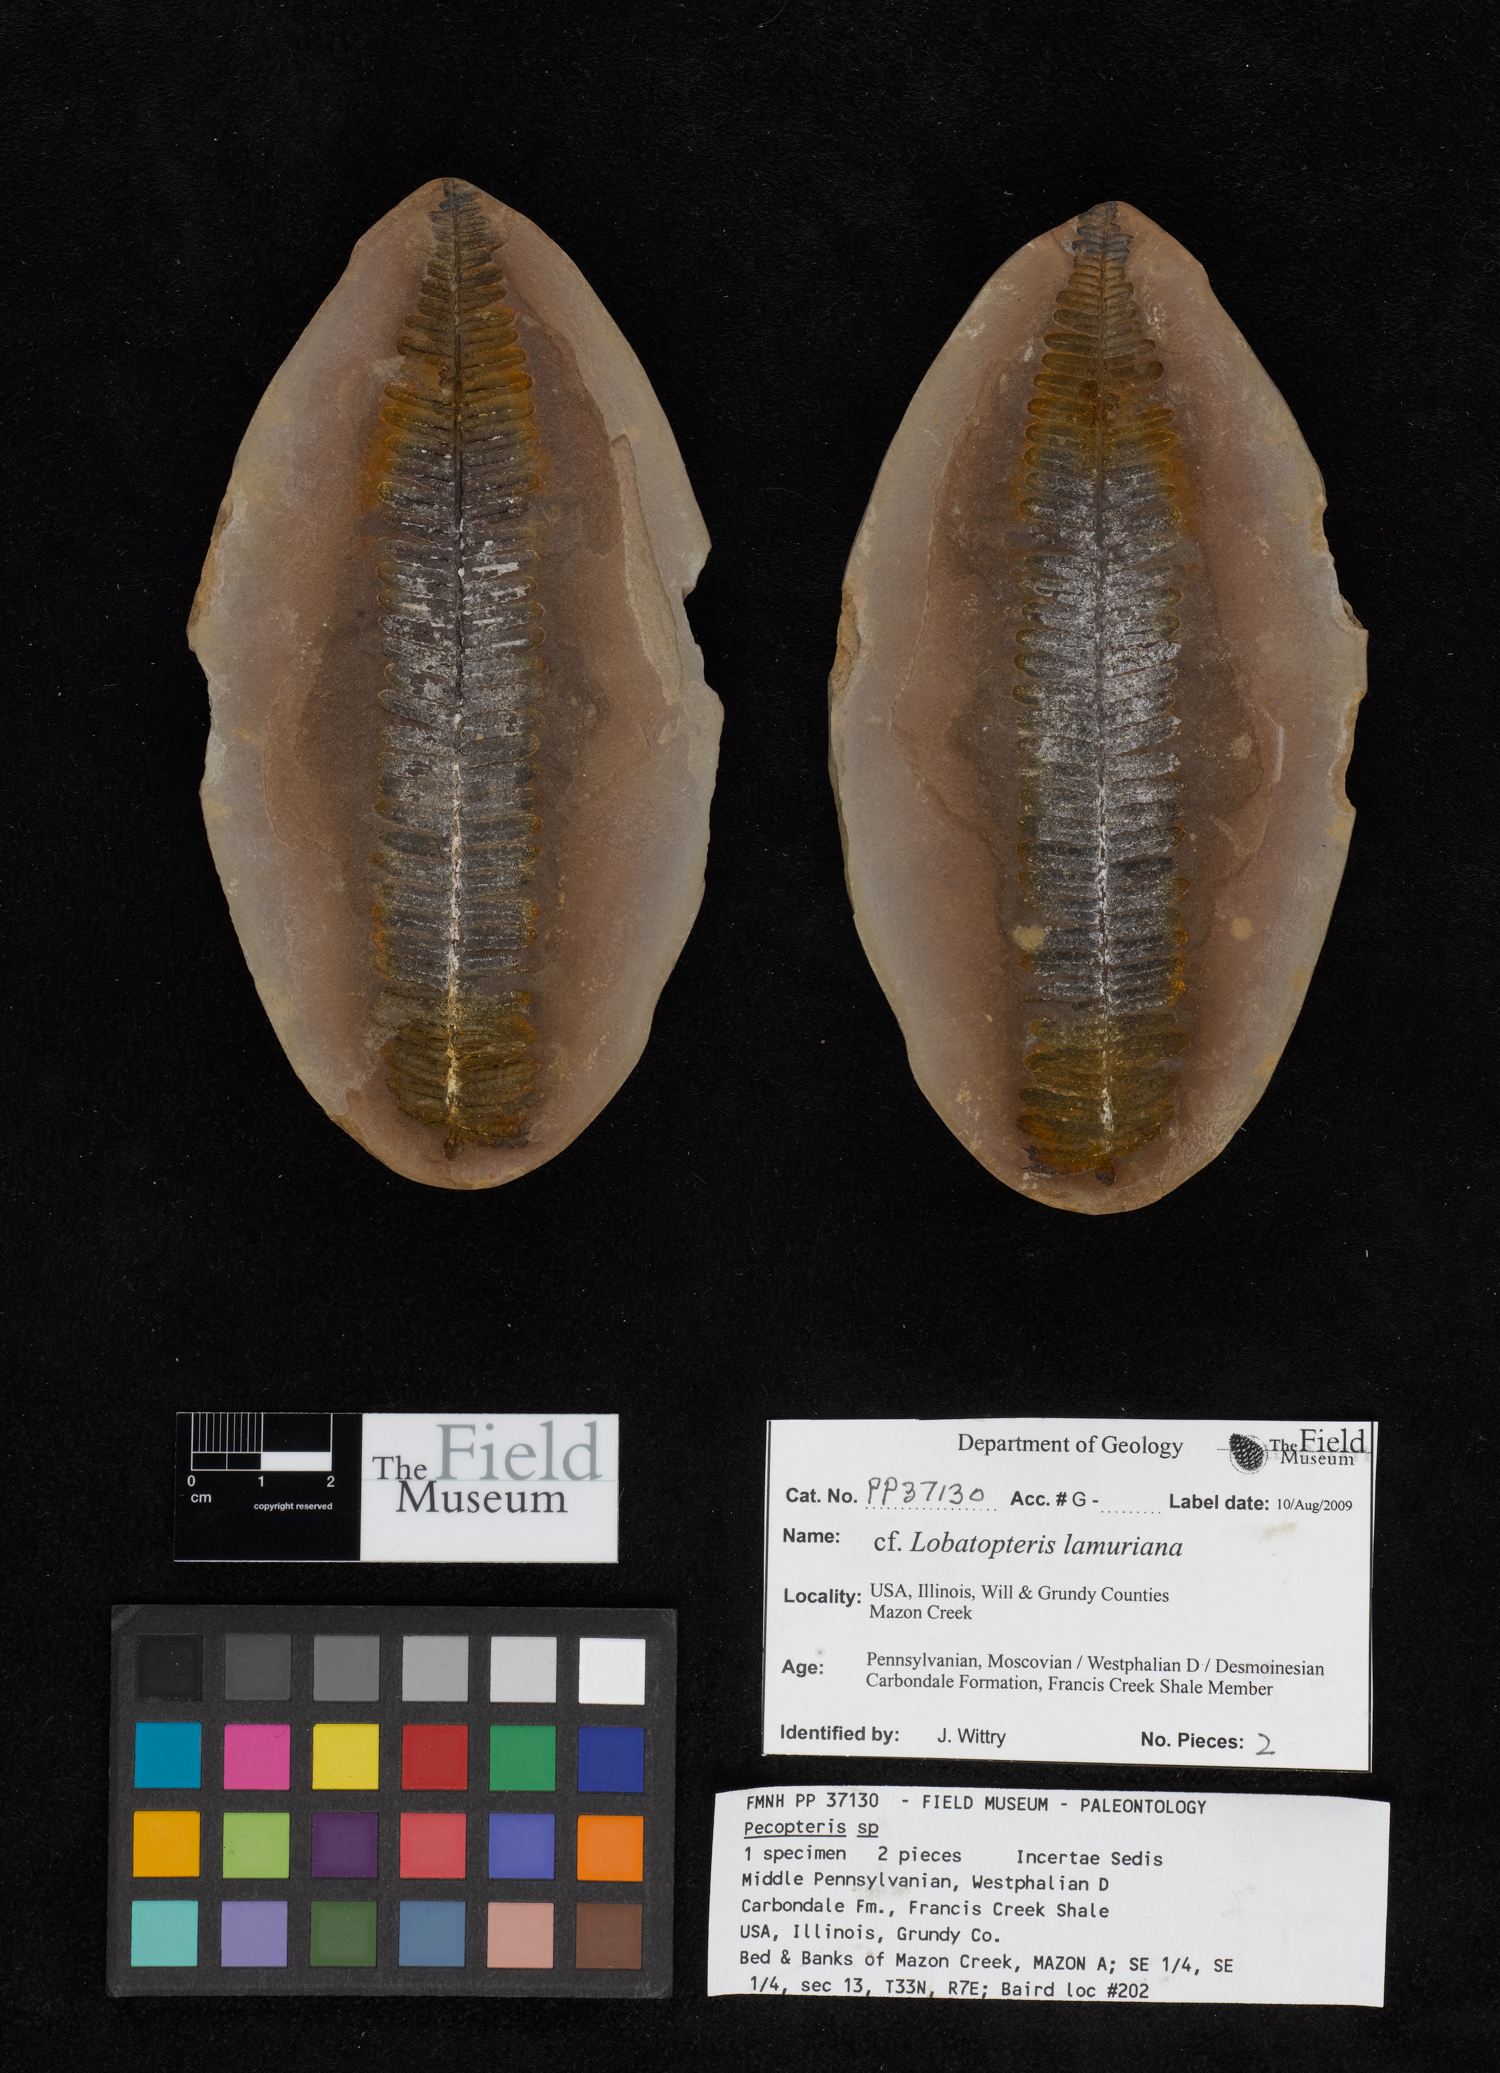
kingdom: Plantae
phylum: Tracheophyta
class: Polypodiopsida
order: Marattiales
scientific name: Marattiales
